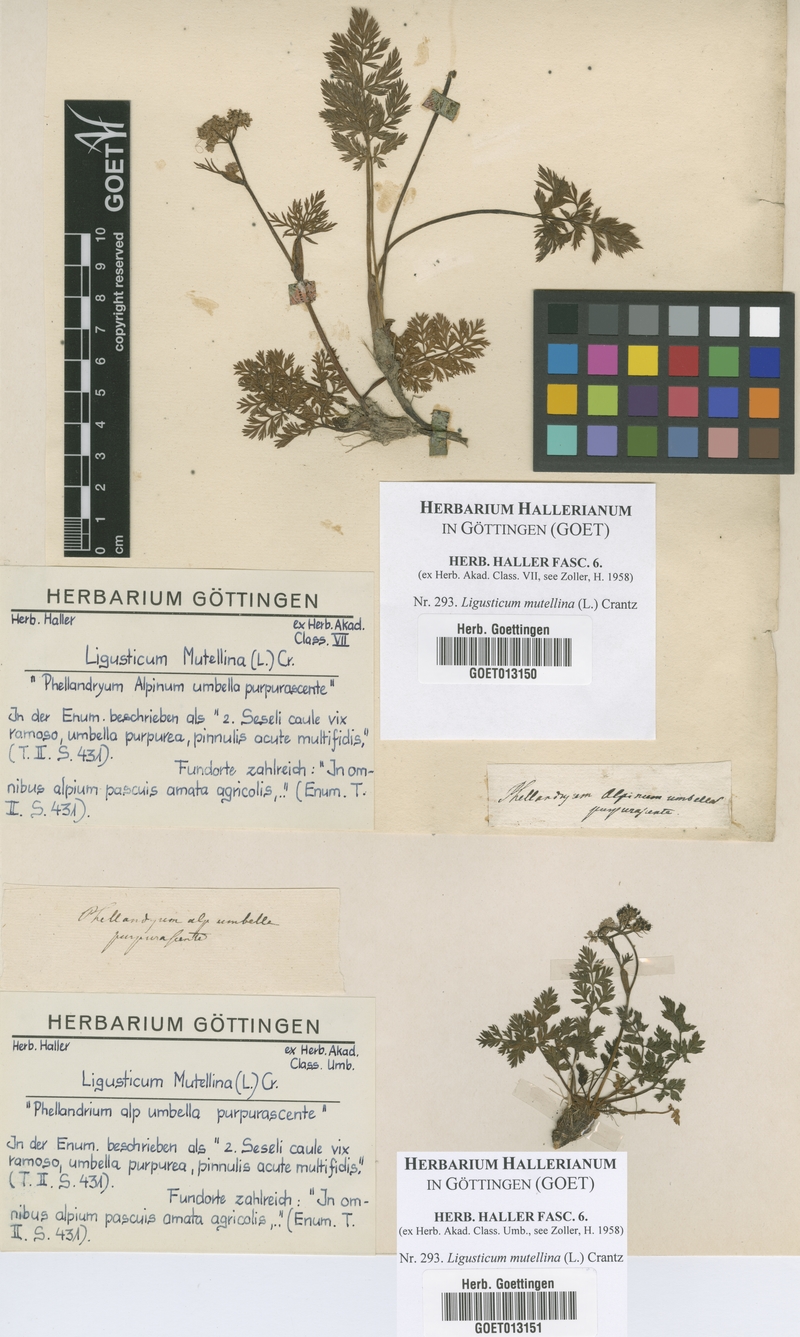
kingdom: Plantae
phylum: Tracheophyta
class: Magnoliopsida
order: Apiales
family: Apiaceae
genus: Mutellina
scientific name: Mutellina adonidifolia
